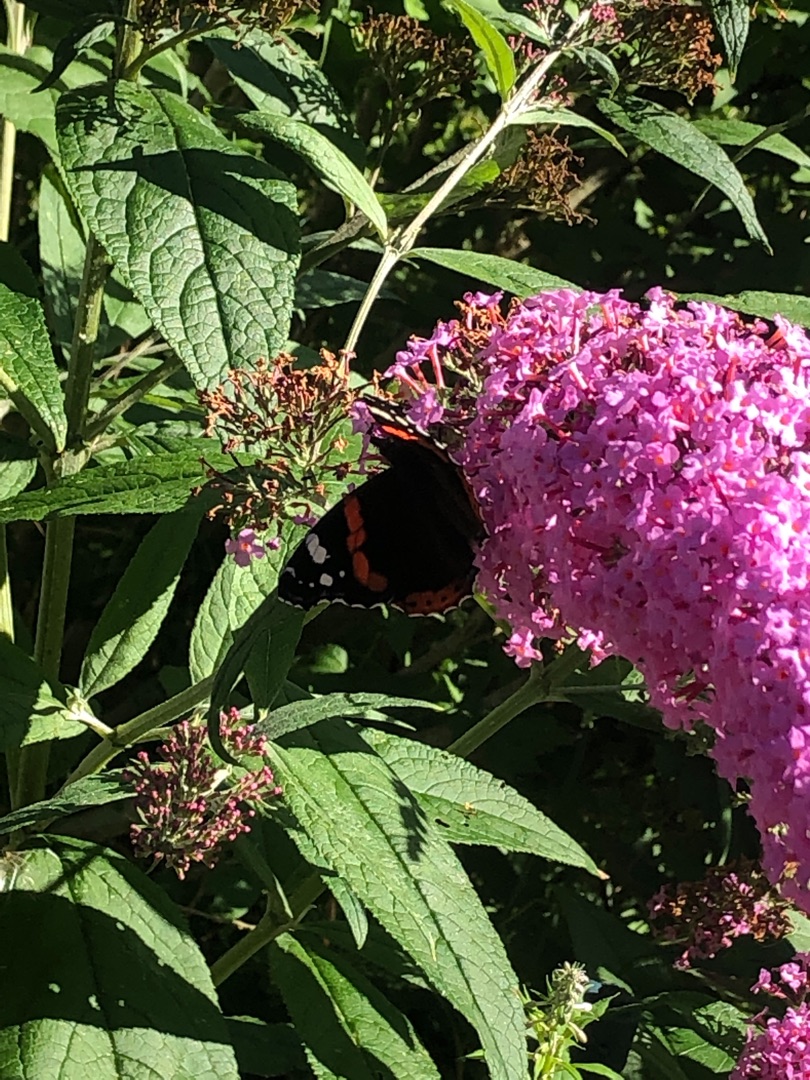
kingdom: Animalia
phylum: Arthropoda
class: Insecta
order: Lepidoptera
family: Nymphalidae
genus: Vanessa
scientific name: Vanessa atalanta
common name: Admiral
